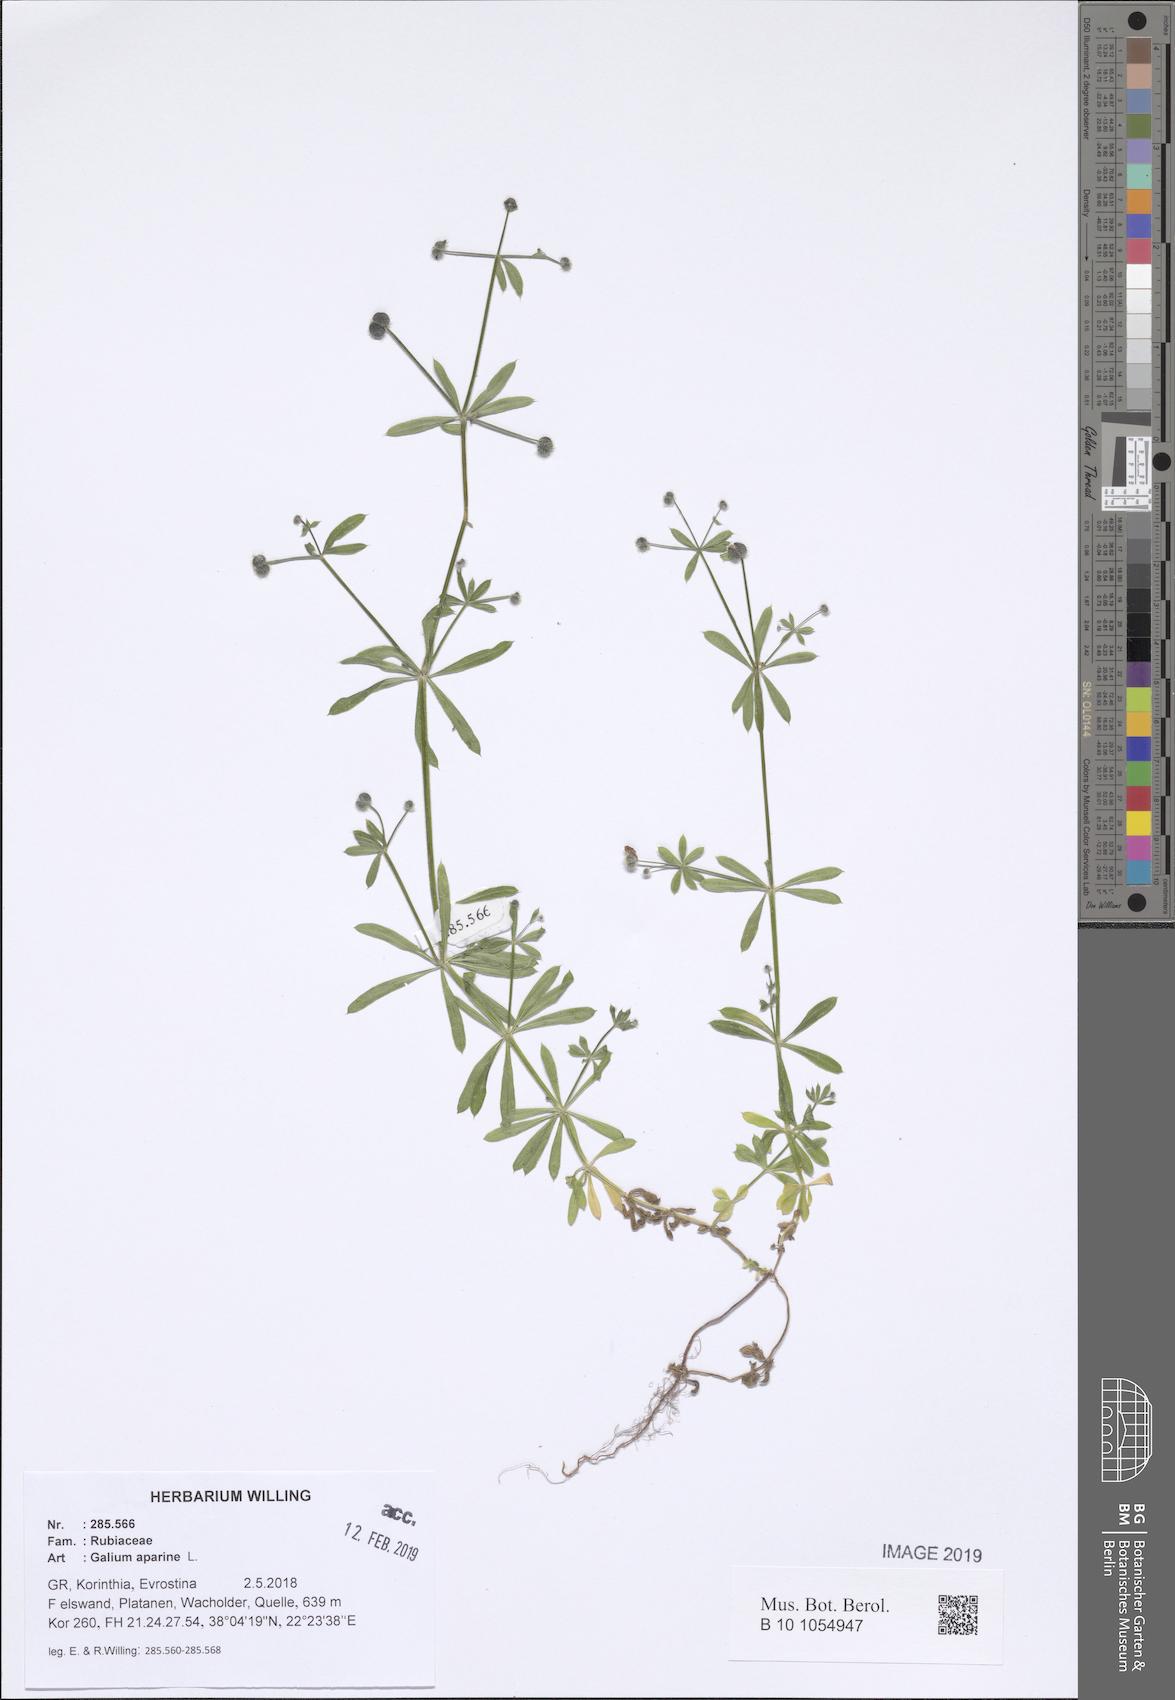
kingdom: Plantae
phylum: Tracheophyta
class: Magnoliopsida
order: Gentianales
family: Rubiaceae
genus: Galium
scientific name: Galium aparine
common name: Cleavers
